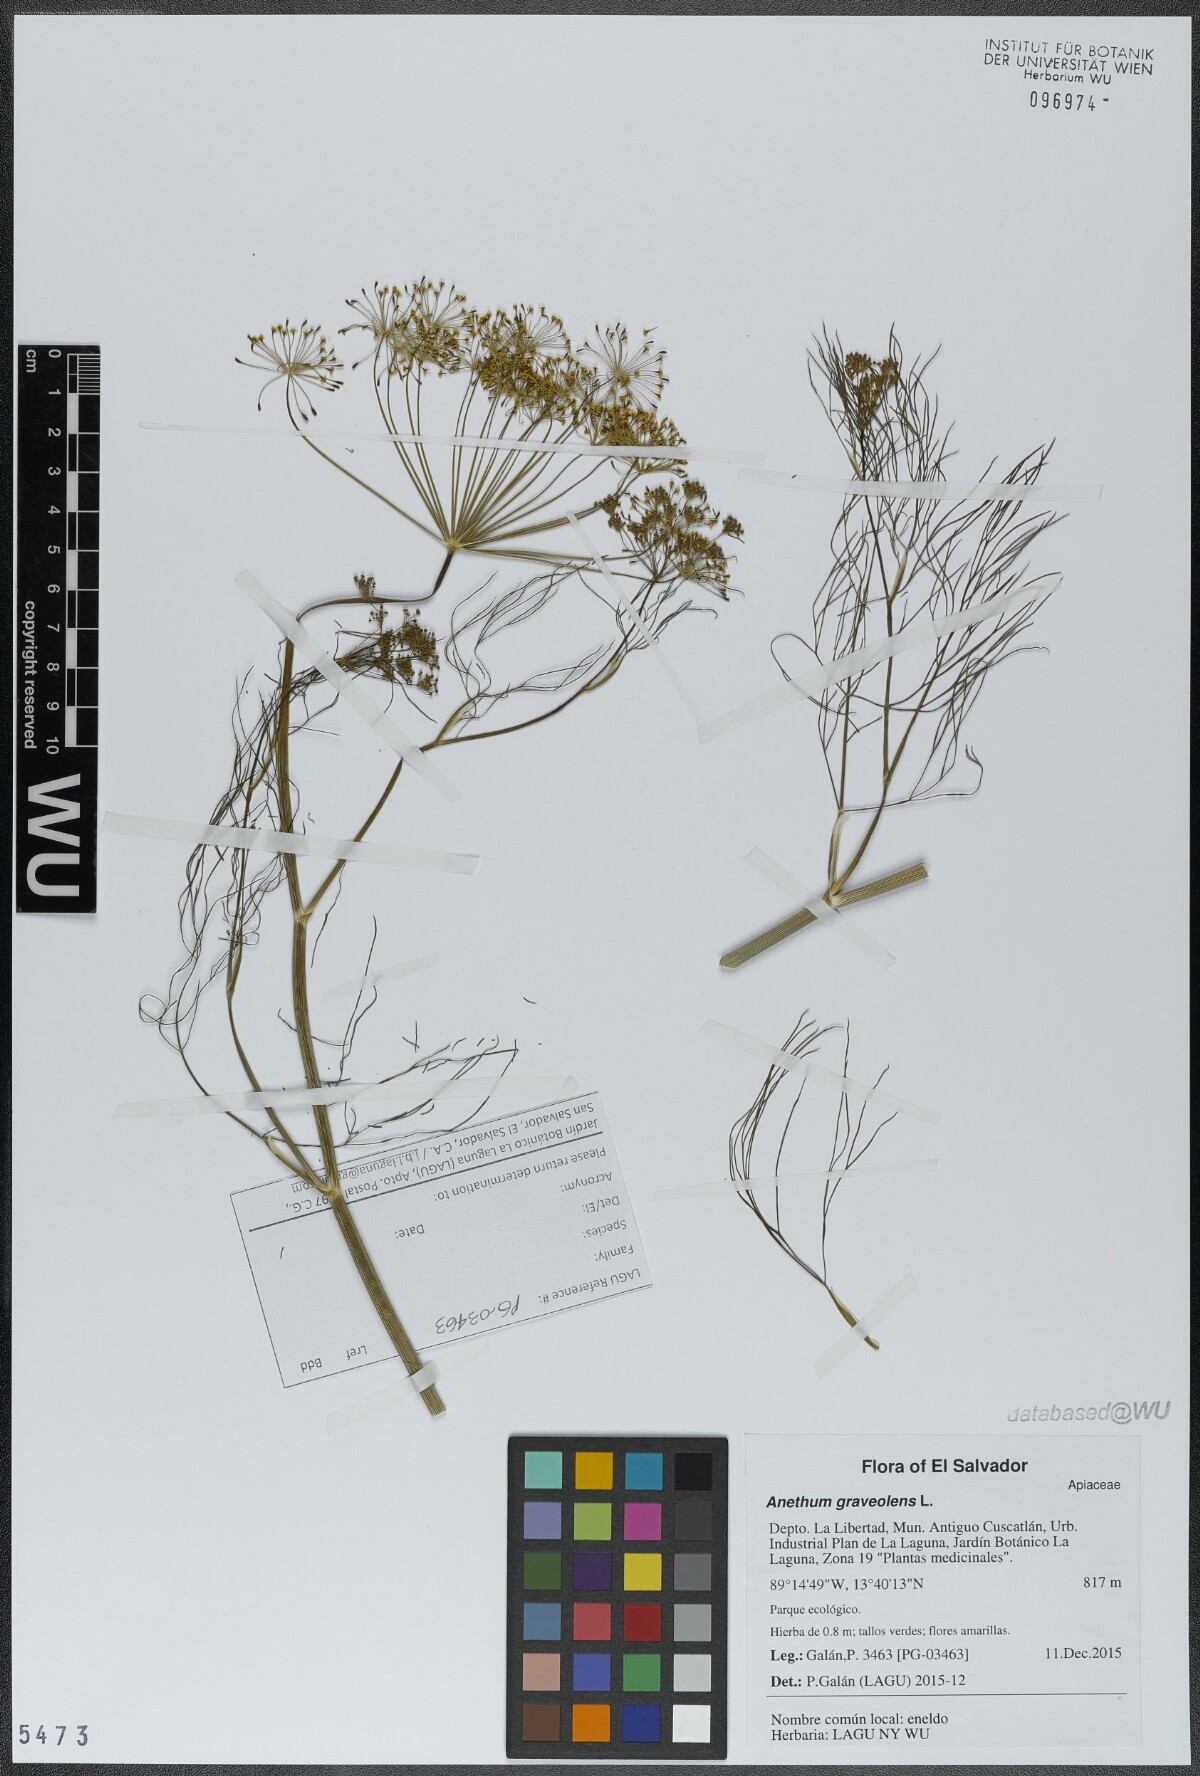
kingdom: Plantae
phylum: Tracheophyta
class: Magnoliopsida
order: Apiales
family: Apiaceae
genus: Anethum
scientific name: Anethum graveolens
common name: Dill
